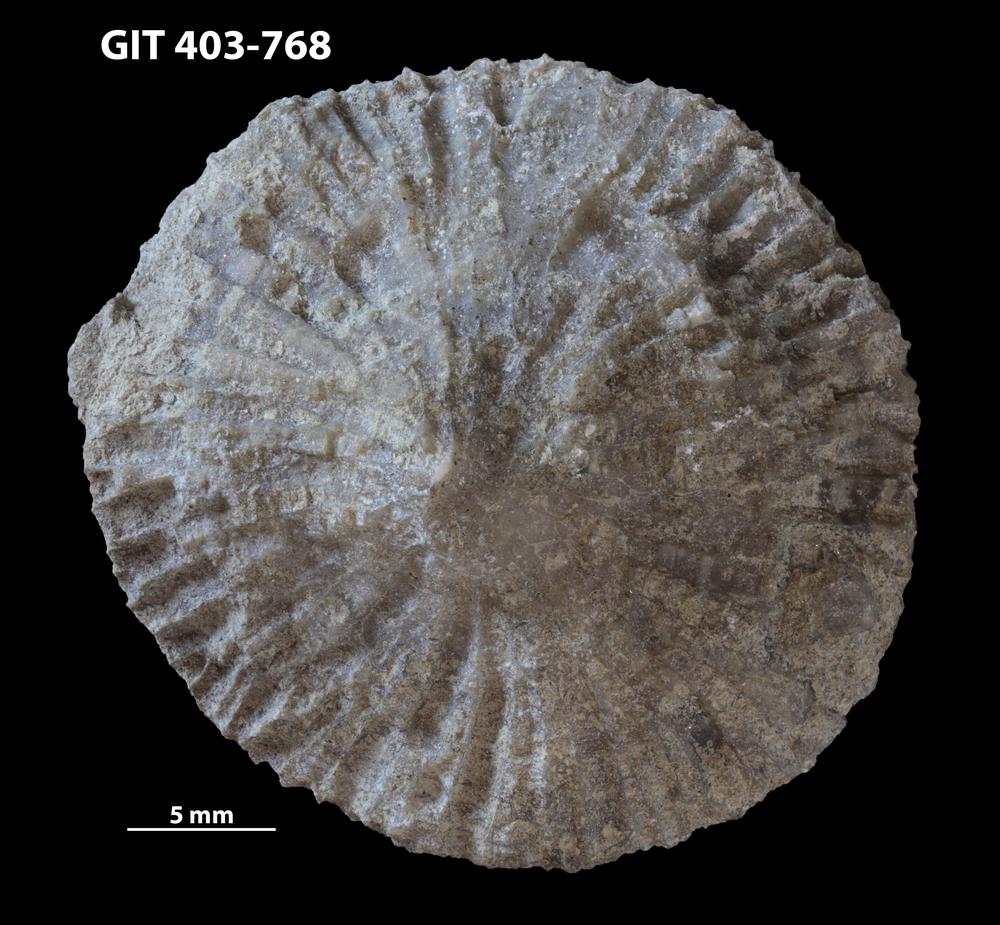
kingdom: Animalia
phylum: Cnidaria
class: Anthozoa
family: Favositidae
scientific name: Favositidae
